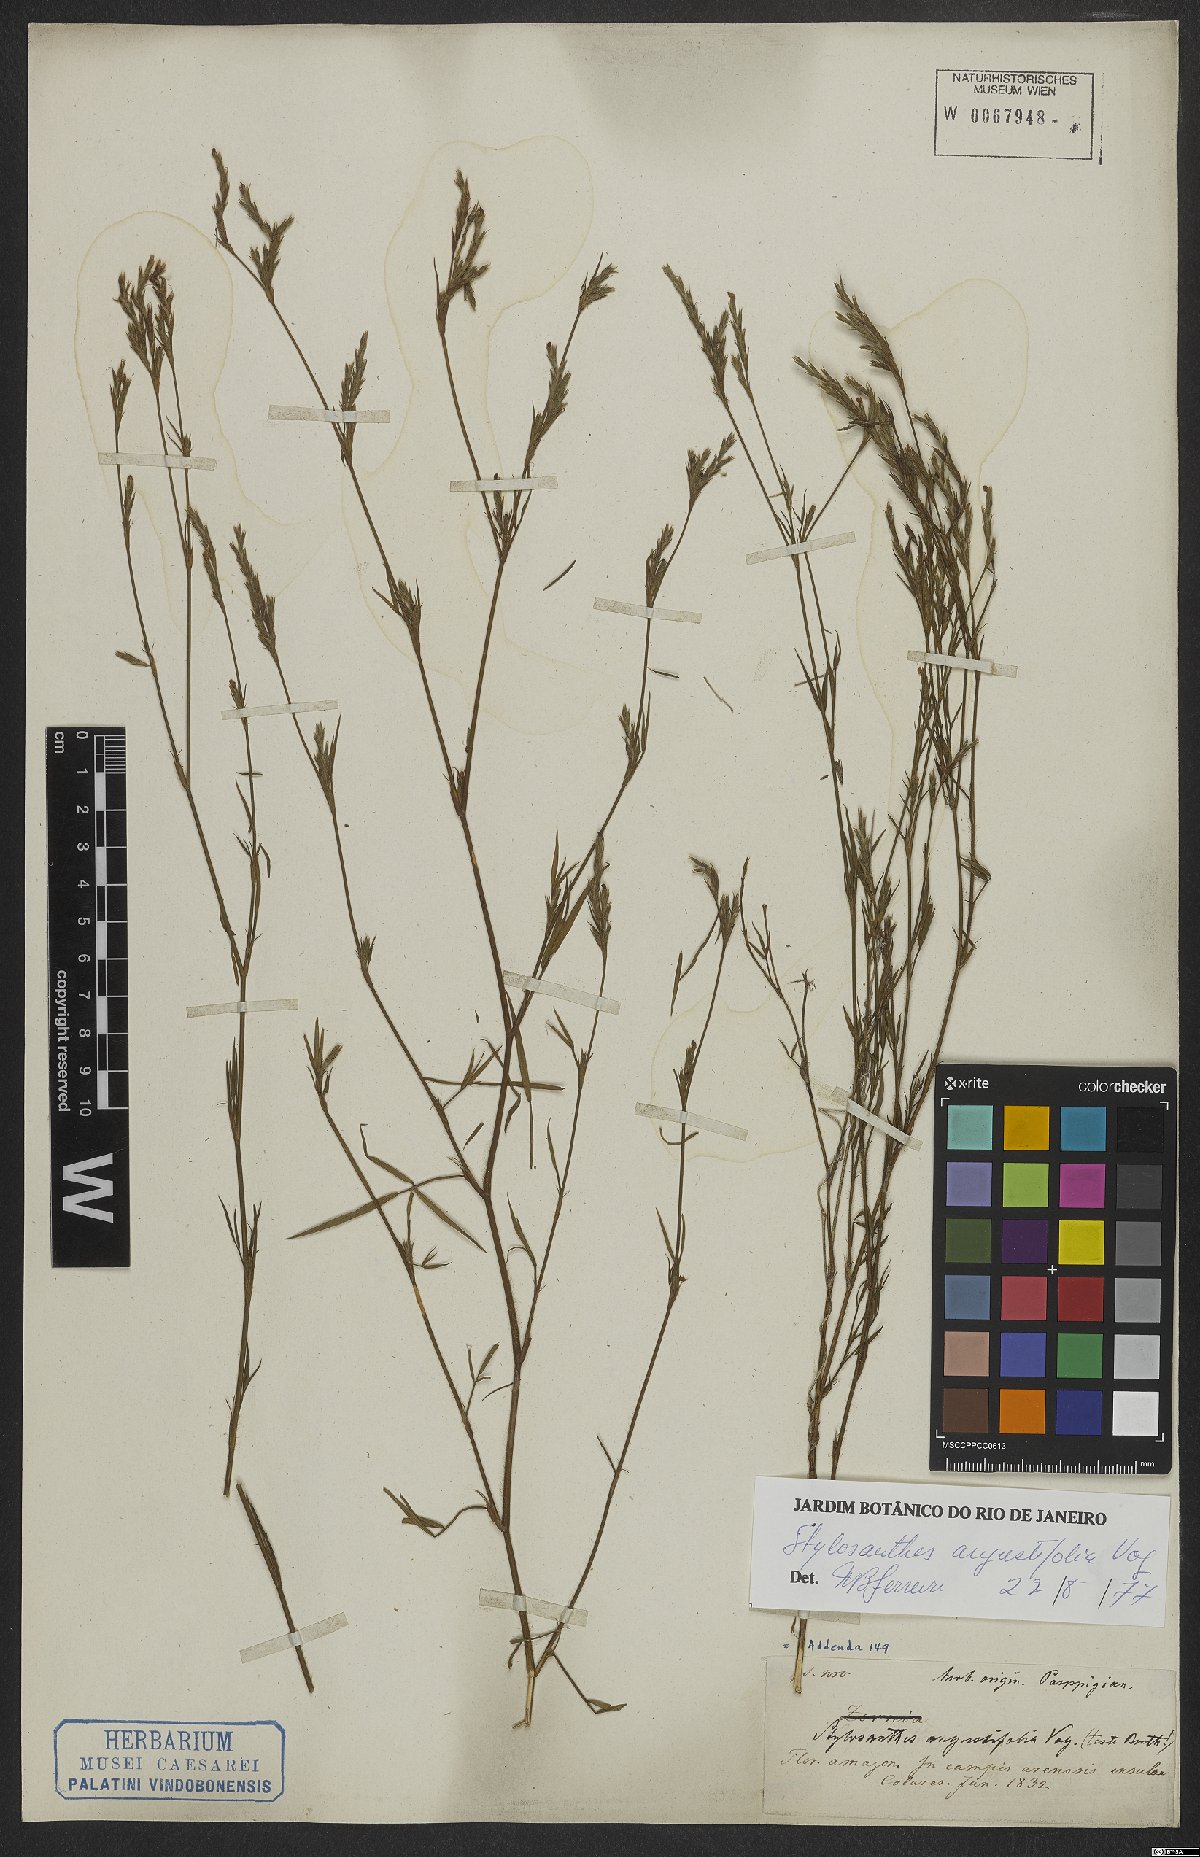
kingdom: Plantae
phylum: Tracheophyta
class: Magnoliopsida
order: Fabales
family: Fabaceae
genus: Stylosanthes
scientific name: Stylosanthes angustifolia
